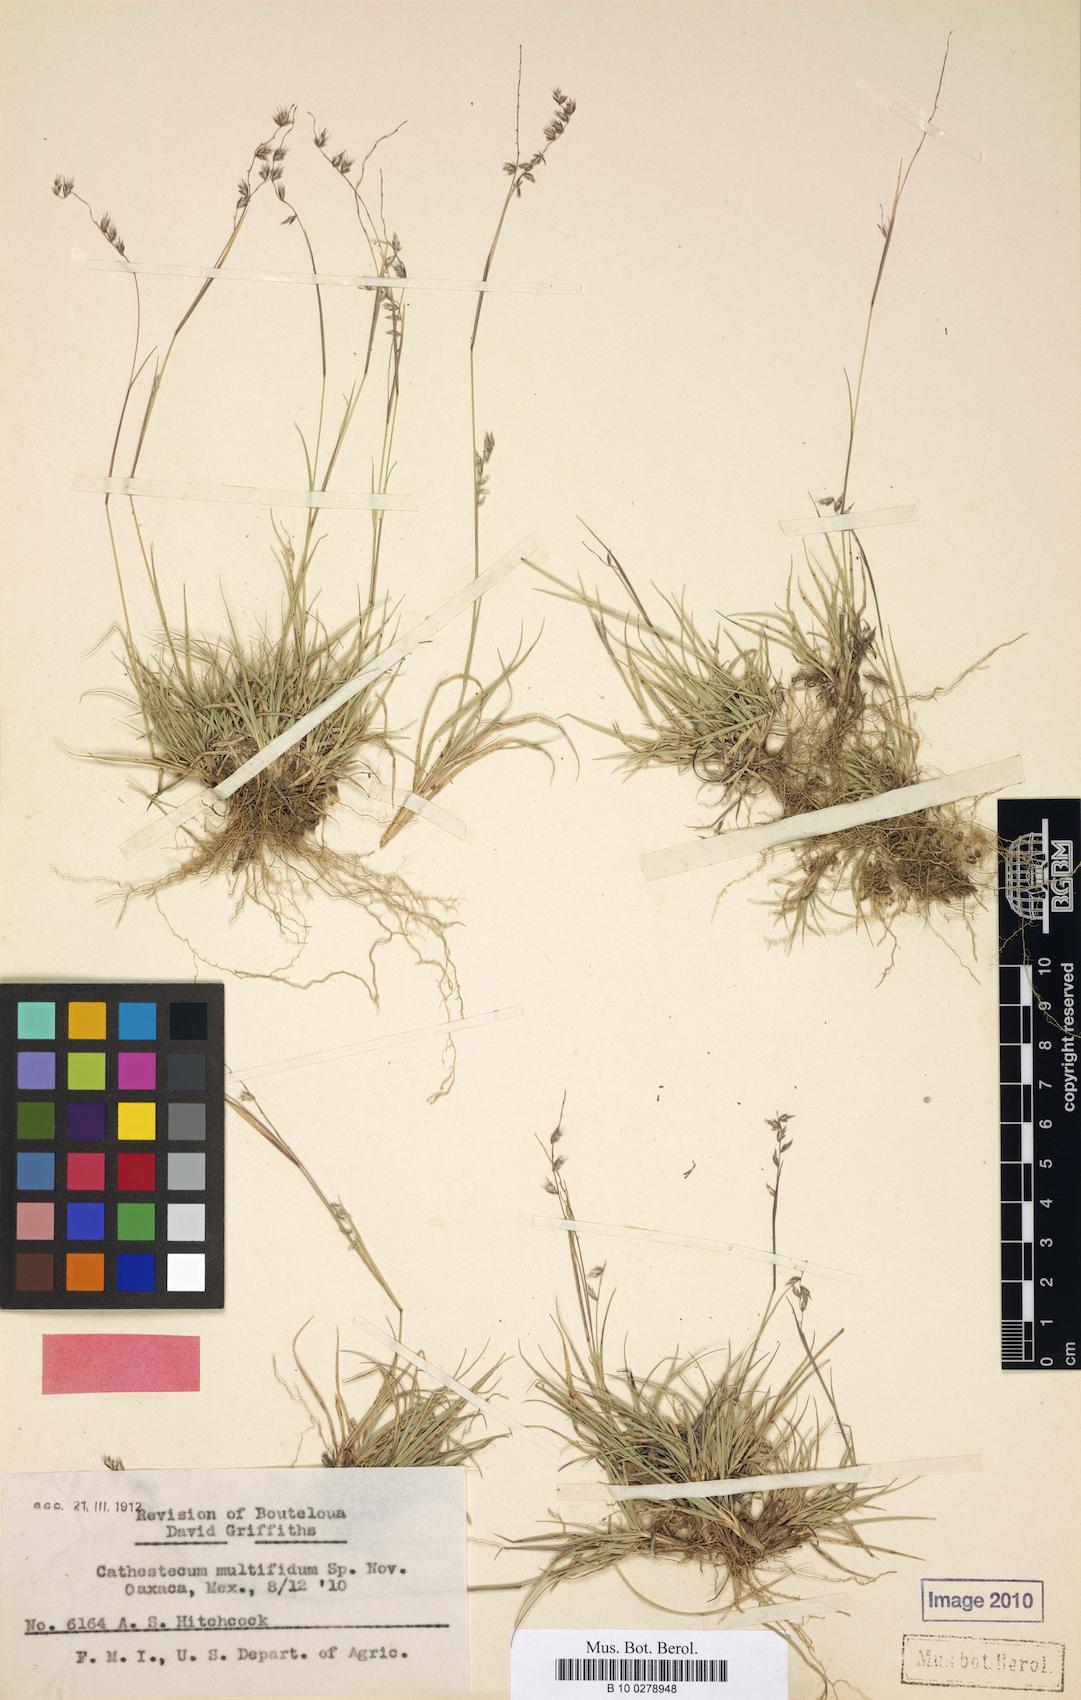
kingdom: Plantae
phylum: Tracheophyta
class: Liliopsida
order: Poales
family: Poaceae
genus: Bouteloua
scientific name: Bouteloua multifida
